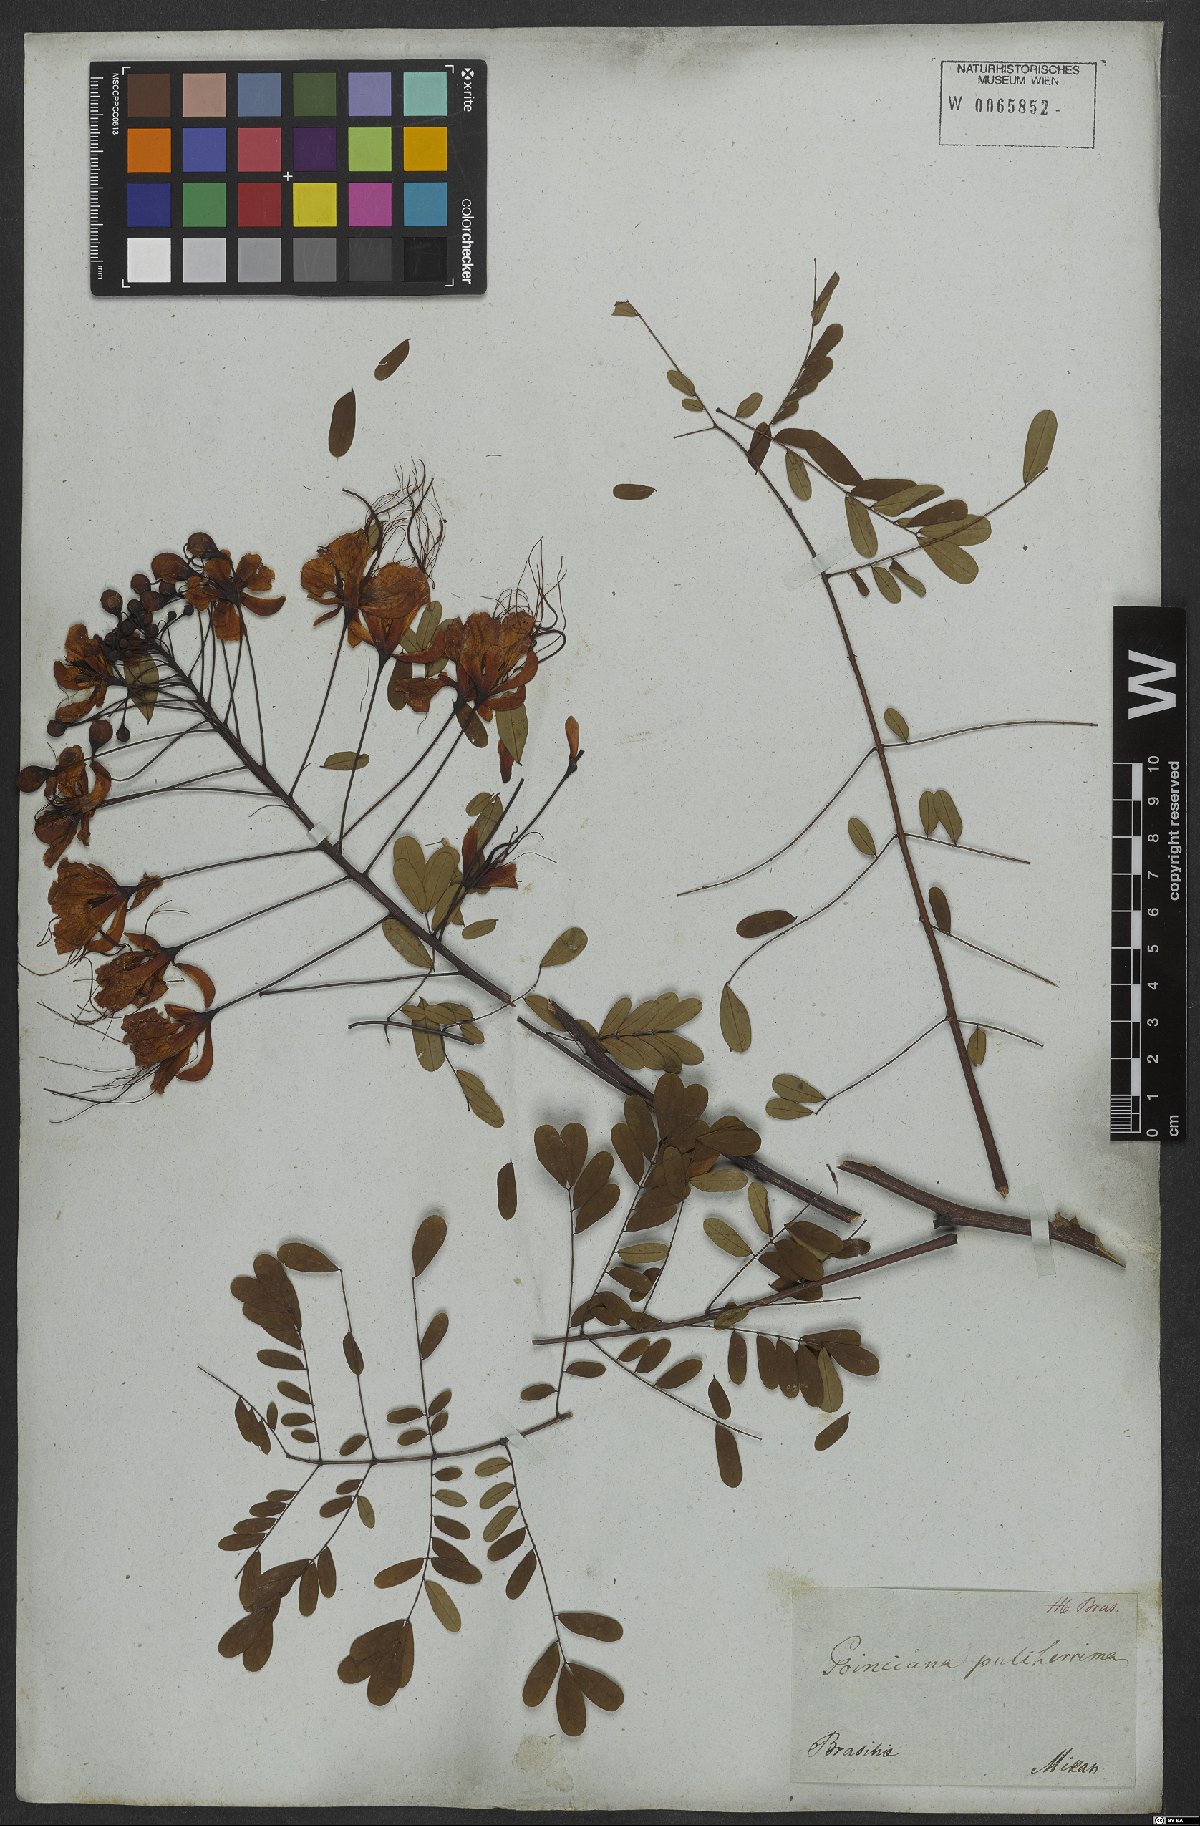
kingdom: Plantae
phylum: Tracheophyta
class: Magnoliopsida
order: Fabales
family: Fabaceae
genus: Caesalpinia
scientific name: Caesalpinia pulcherrima
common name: Pride-of-barbados
